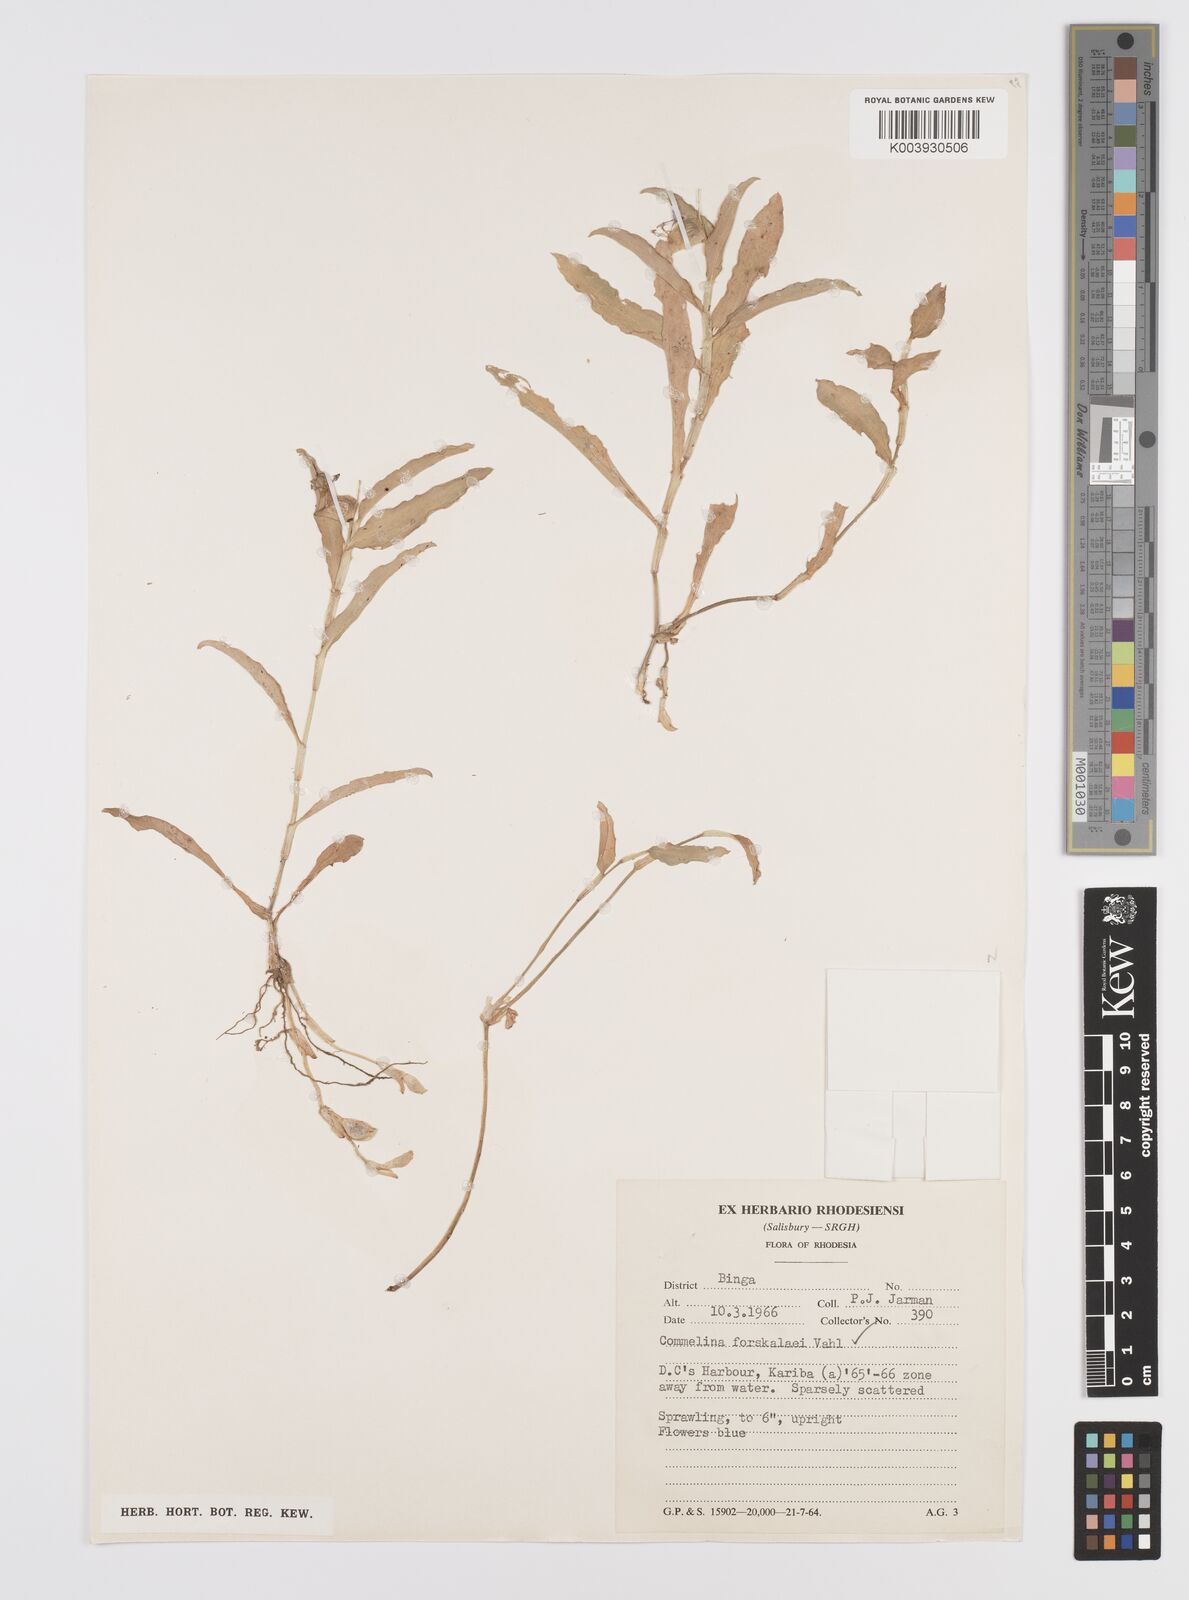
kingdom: Plantae
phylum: Tracheophyta
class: Liliopsida
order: Commelinales
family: Commelinaceae
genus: Commelina
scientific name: Commelina forskaolii
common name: Rat's ear
